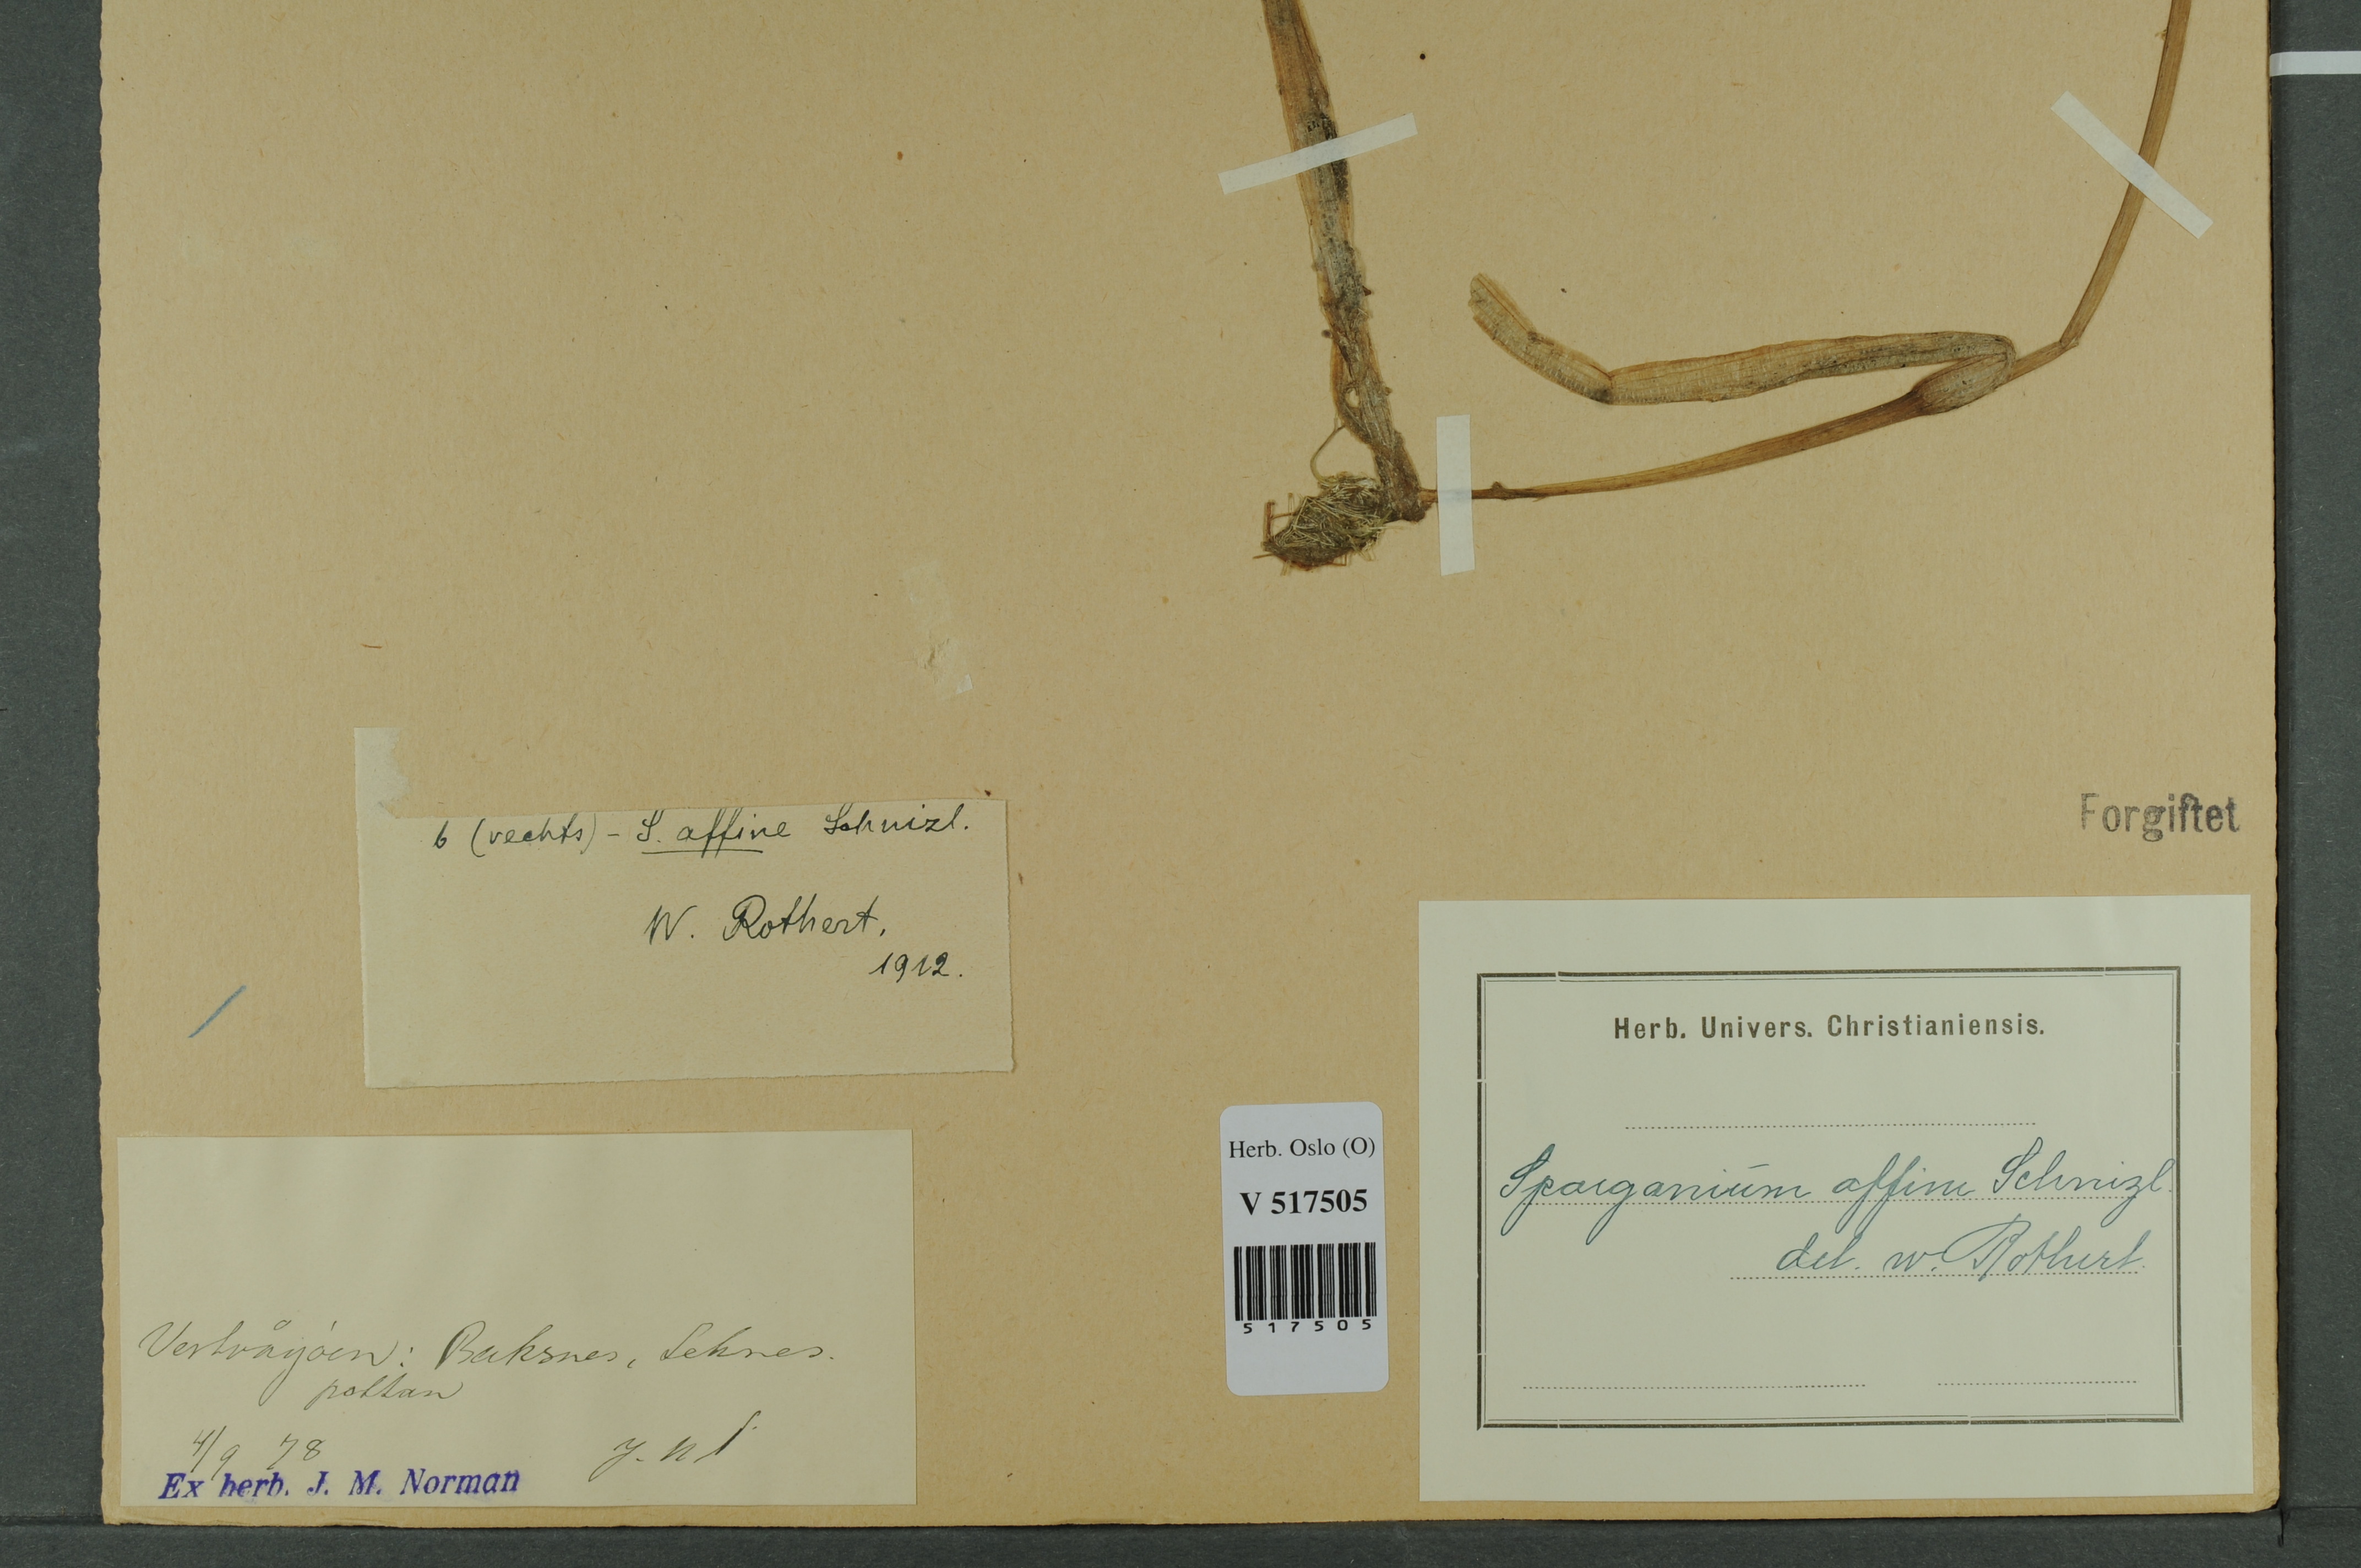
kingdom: Plantae
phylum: Tracheophyta
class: Liliopsida
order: Poales
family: Typhaceae
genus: Sparganium
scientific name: Sparganium angustifolium
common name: Floating bur-reed
